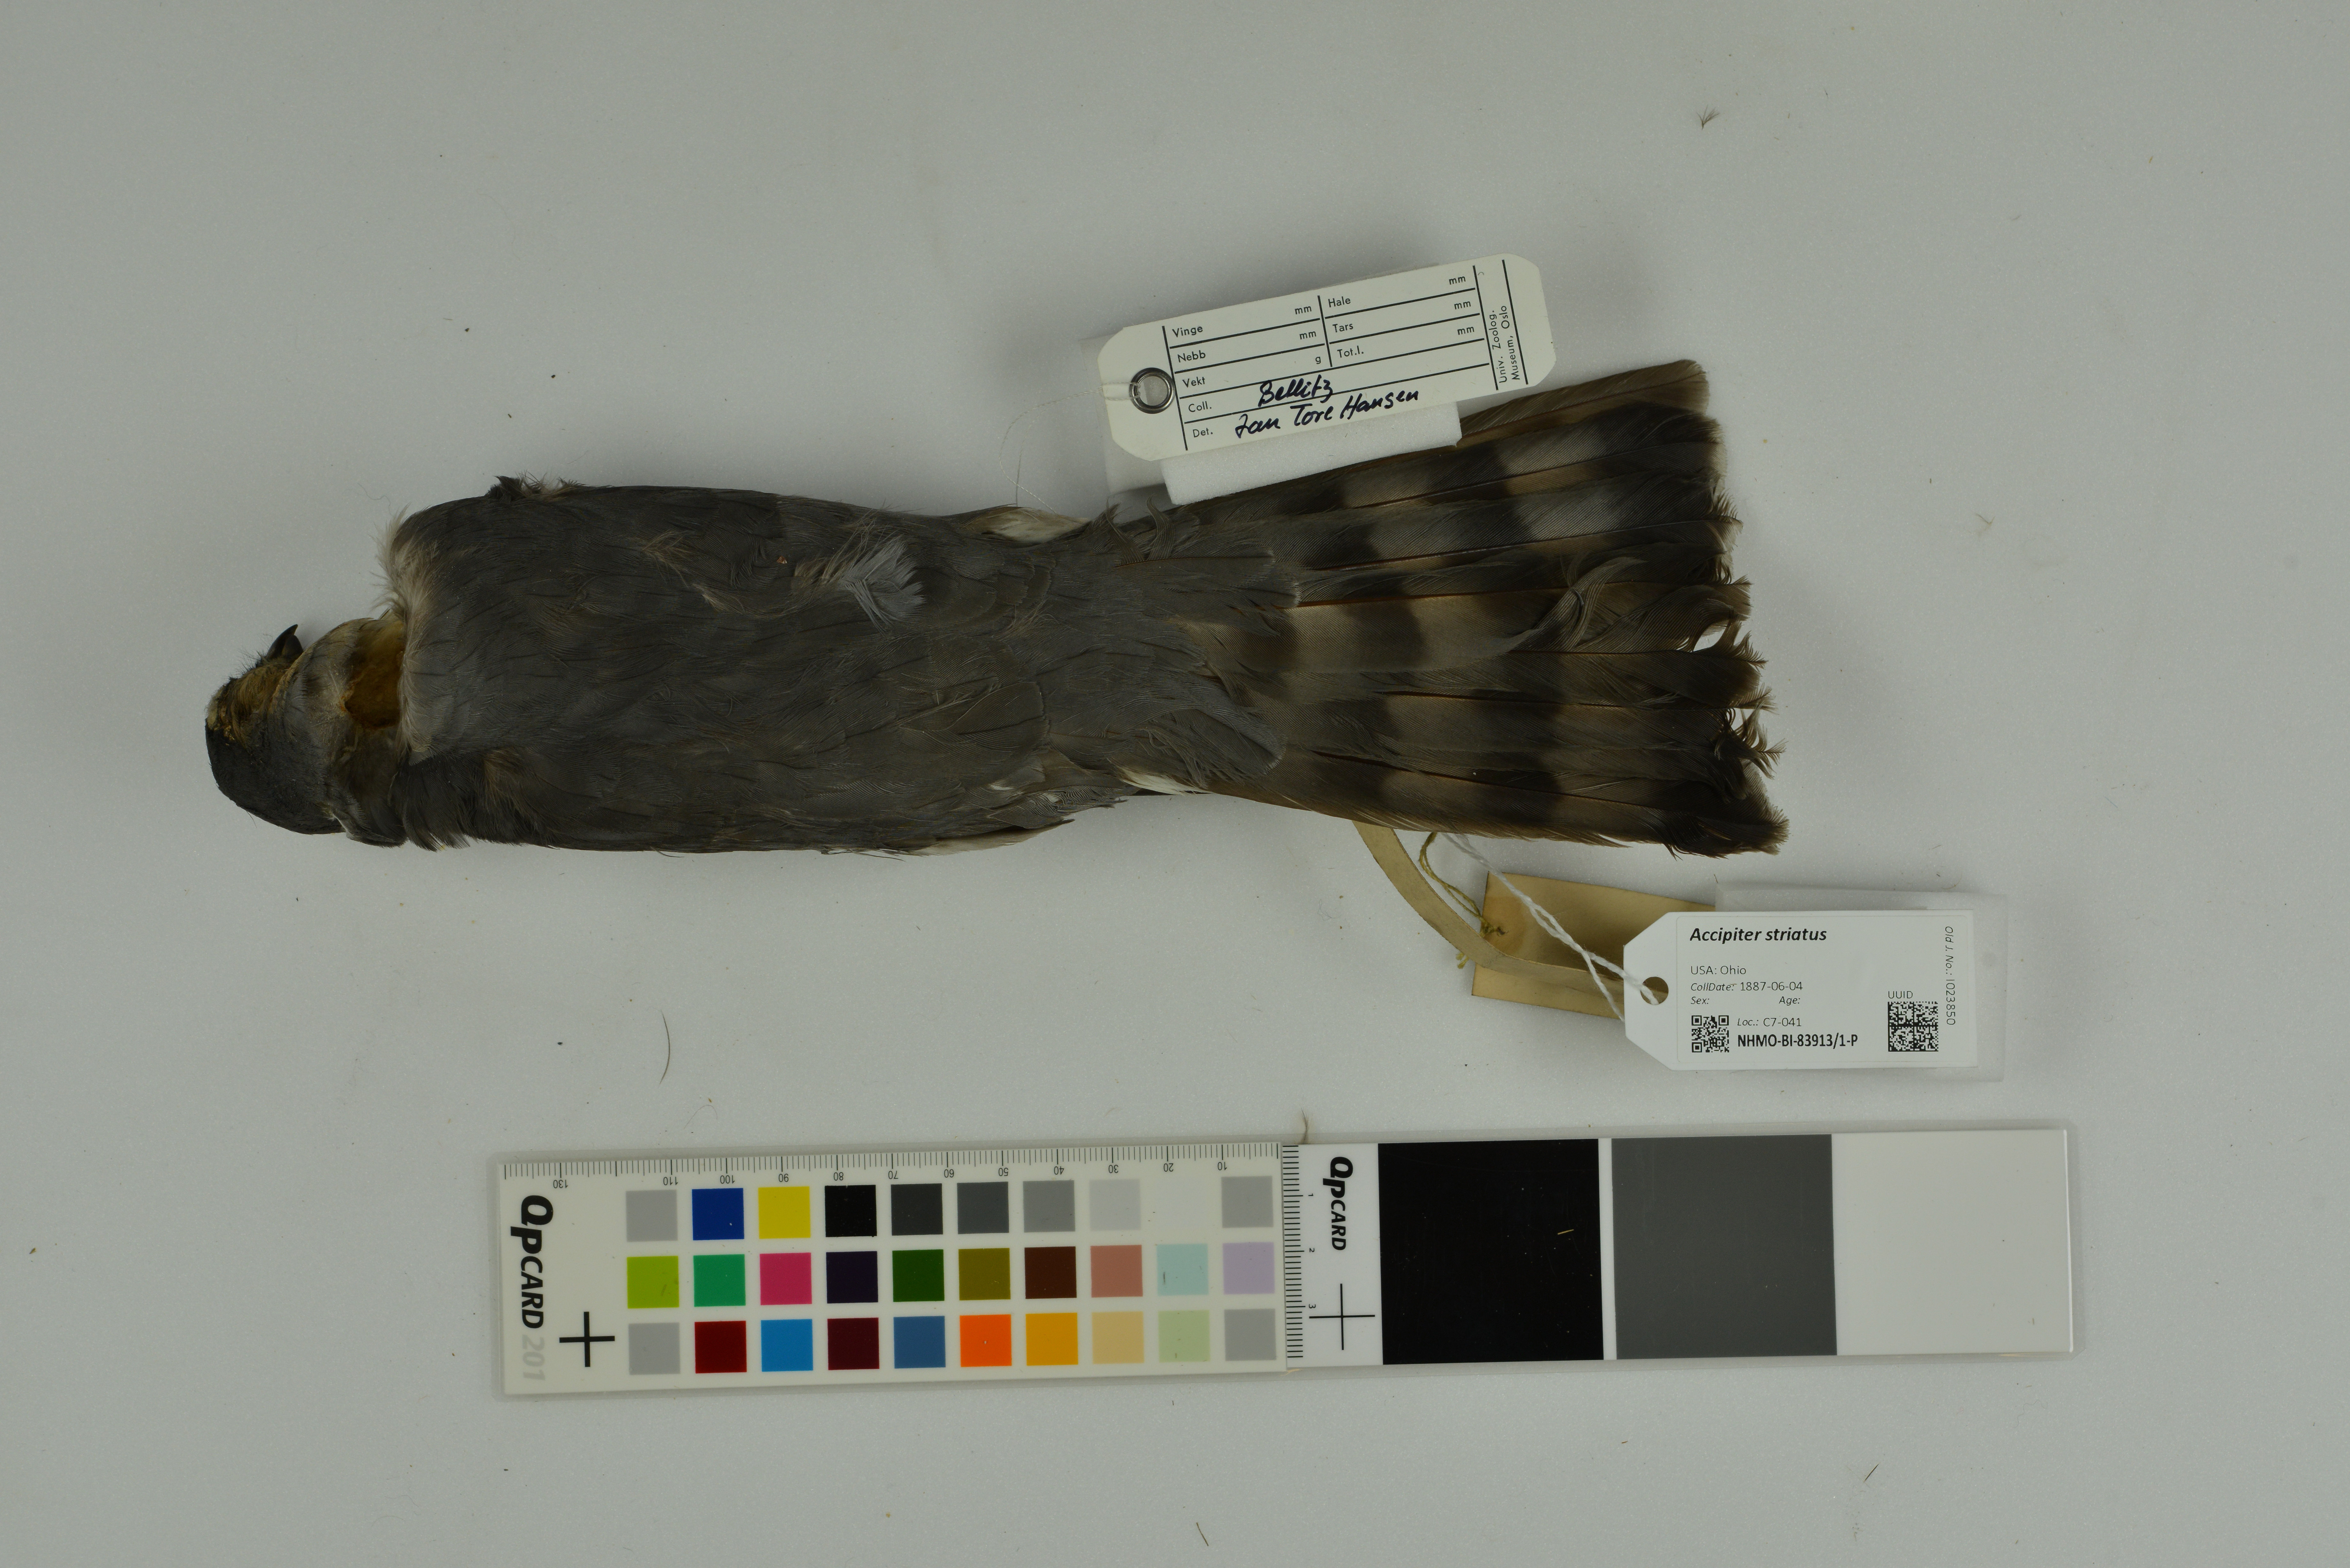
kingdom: Animalia
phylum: Chordata
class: Aves
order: Accipitriformes
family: Accipitridae
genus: Accipiter
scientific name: Accipiter striatus
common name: Sharp-shinned hawk
